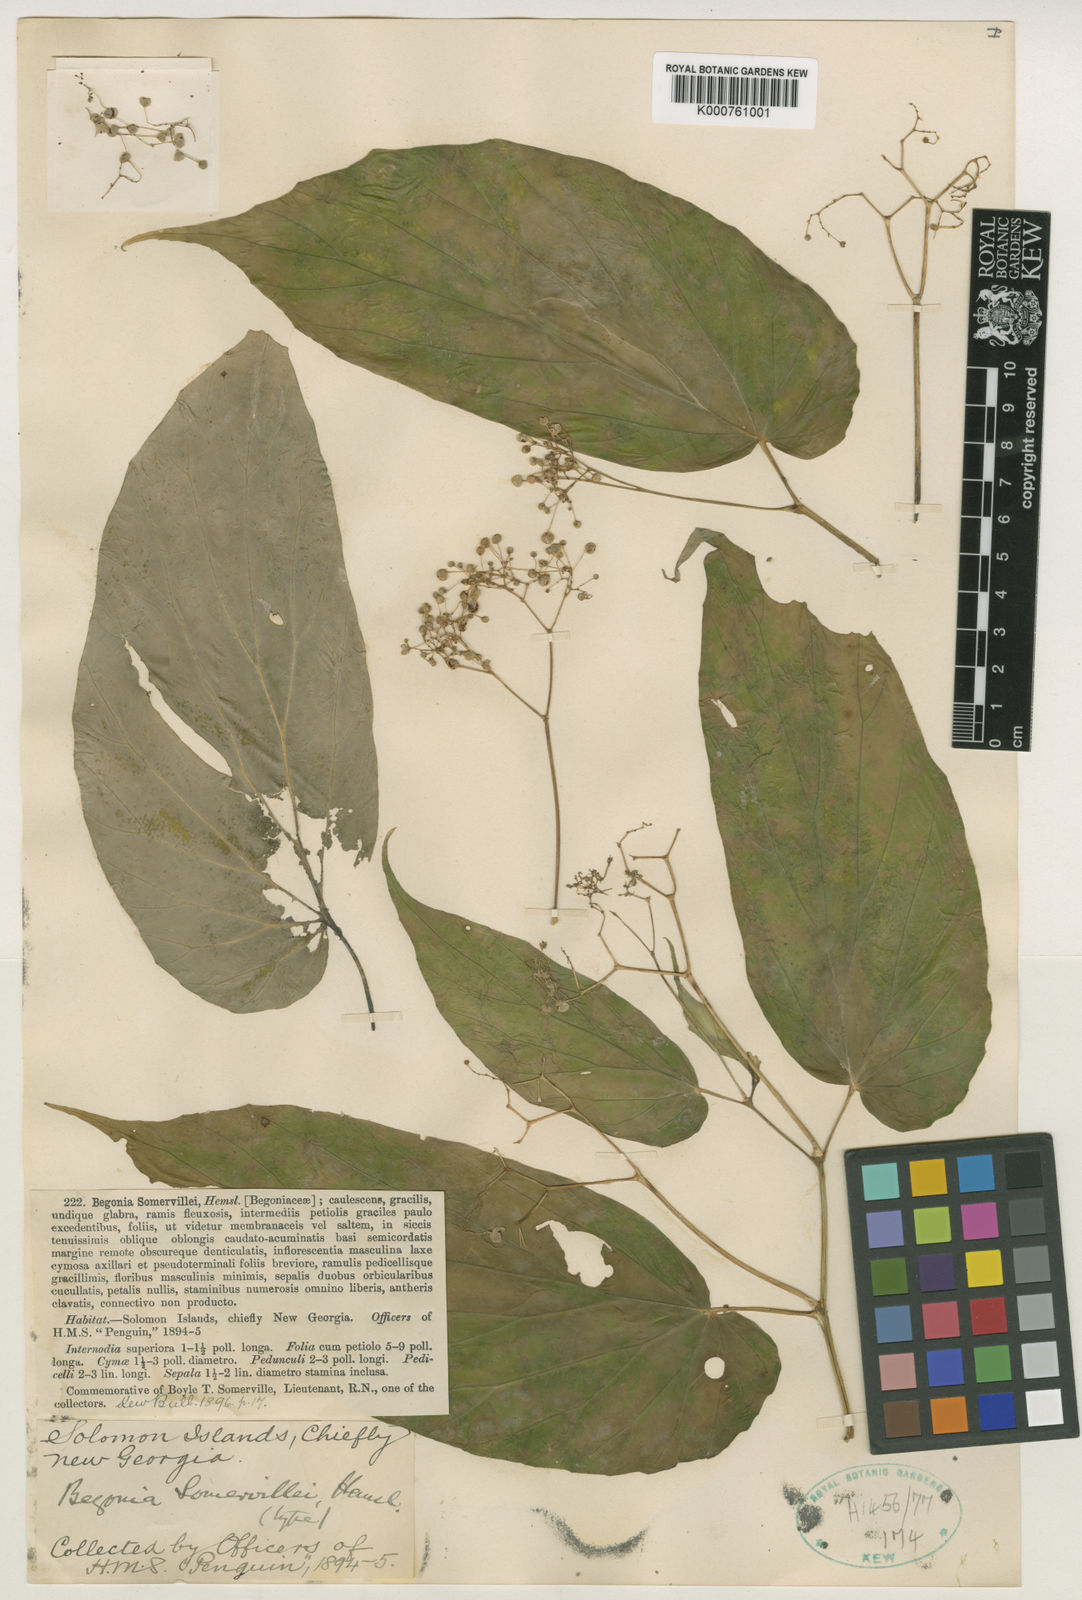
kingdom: Plantae
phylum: Tracheophyta
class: Magnoliopsida
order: Cucurbitales
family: Begoniaceae
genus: Begonia
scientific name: Begonia somervillei
